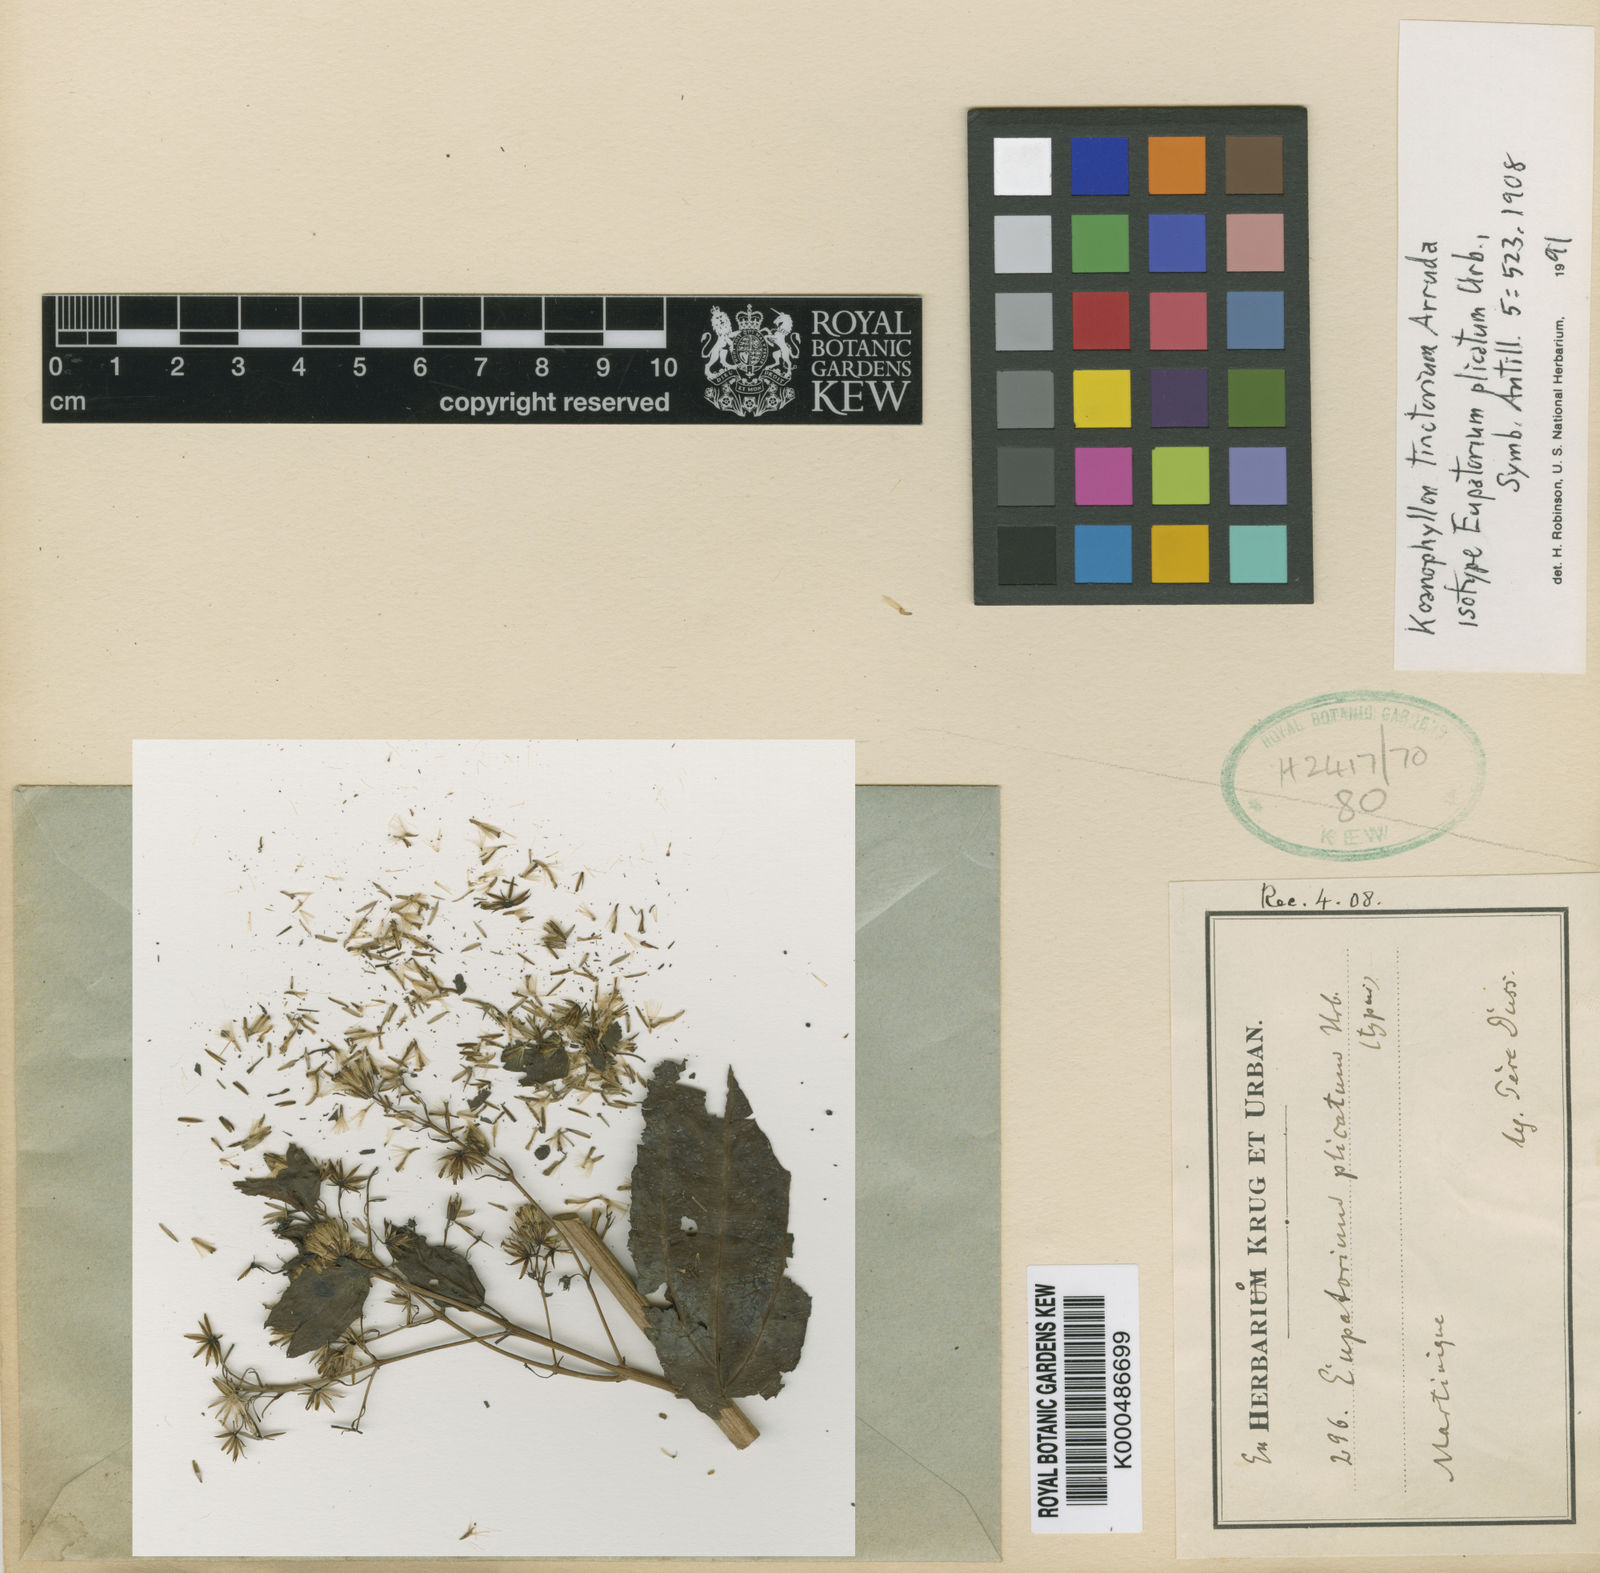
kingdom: Plantae
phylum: Tracheophyta
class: Magnoliopsida
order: Asterales
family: Asteraceae
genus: Koanophyllon
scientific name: Koanophyllon
